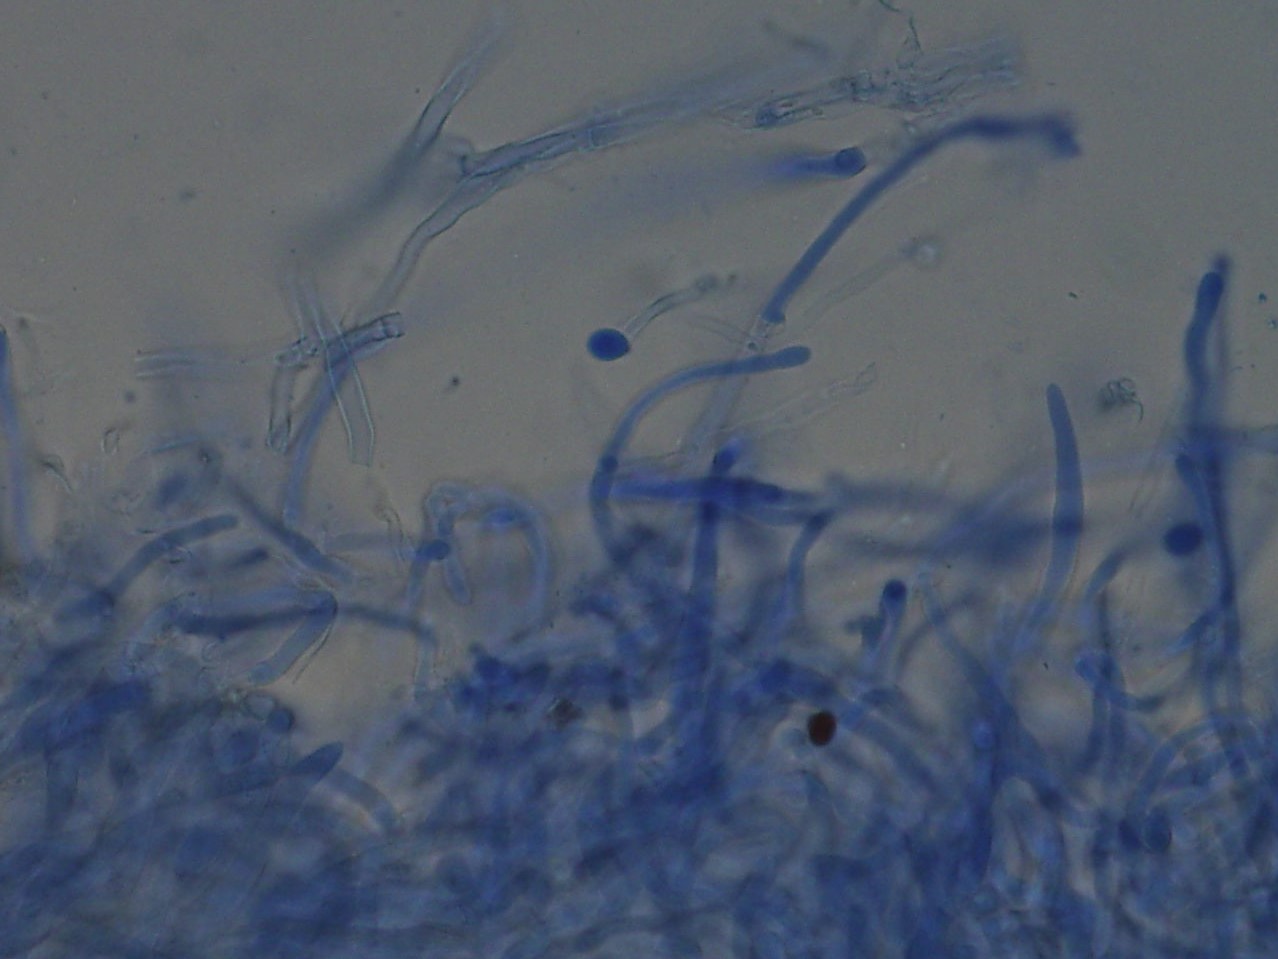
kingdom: Fungi
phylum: Basidiomycota
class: Agaricomycetes
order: Agaricales
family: Physalacriaceae
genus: Cylindrobasidium
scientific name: Cylindrobasidium evolvens
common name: sprækkehinde
